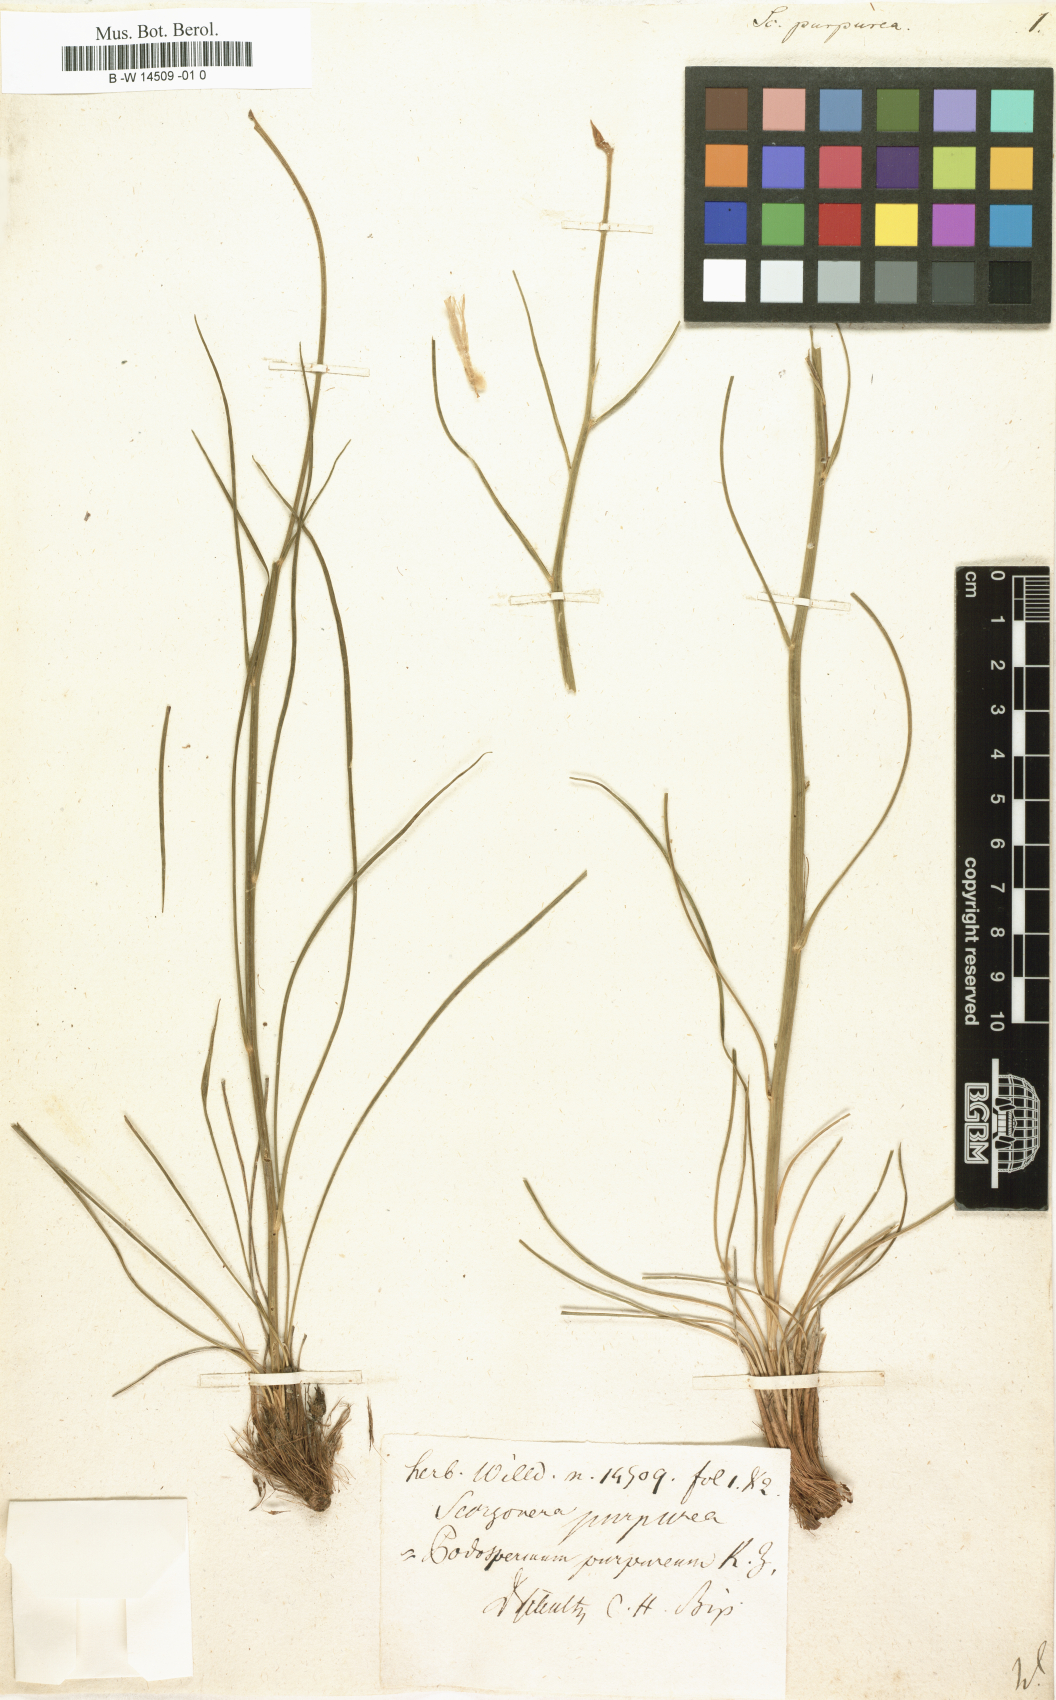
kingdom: Plantae
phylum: Tracheophyta
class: Magnoliopsida
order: Asterales
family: Asteraceae
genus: Scorzonera
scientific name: Scorzonera purpurea
